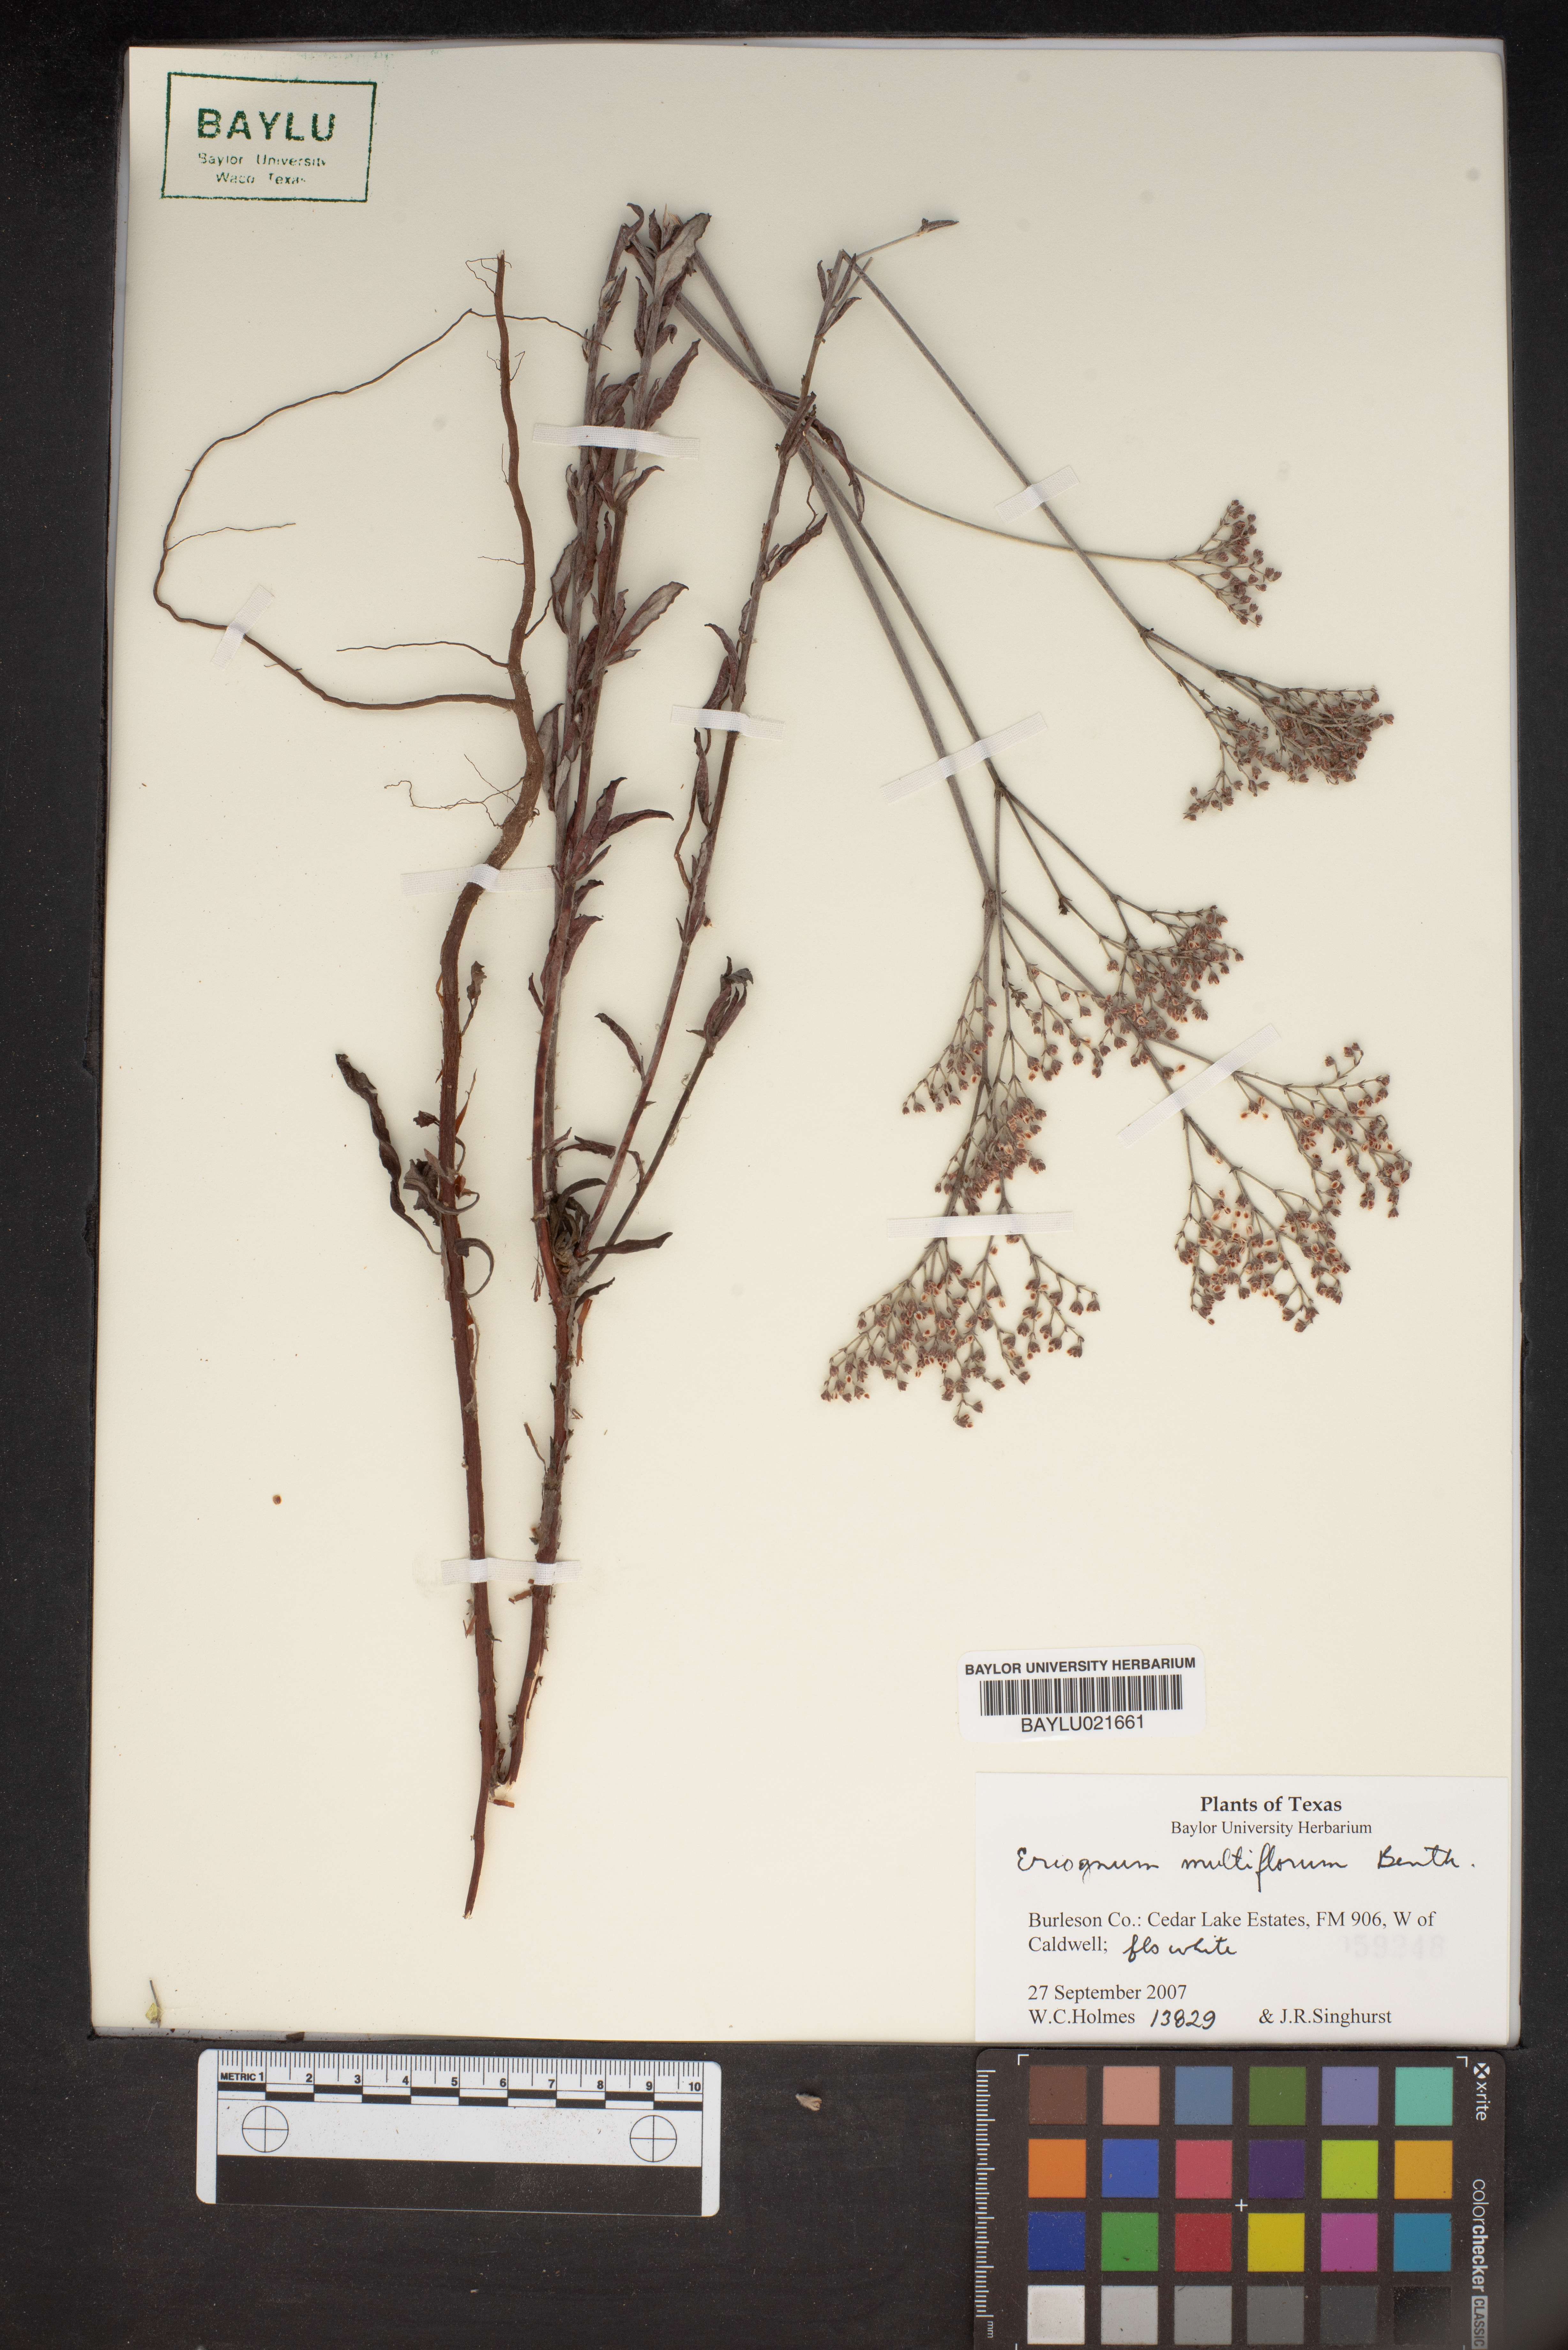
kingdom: Plantae
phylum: Tracheophyta
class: Magnoliopsida
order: Caryophyllales
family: Polygonaceae
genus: Eriogonum
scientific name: Eriogonum multiflorum
